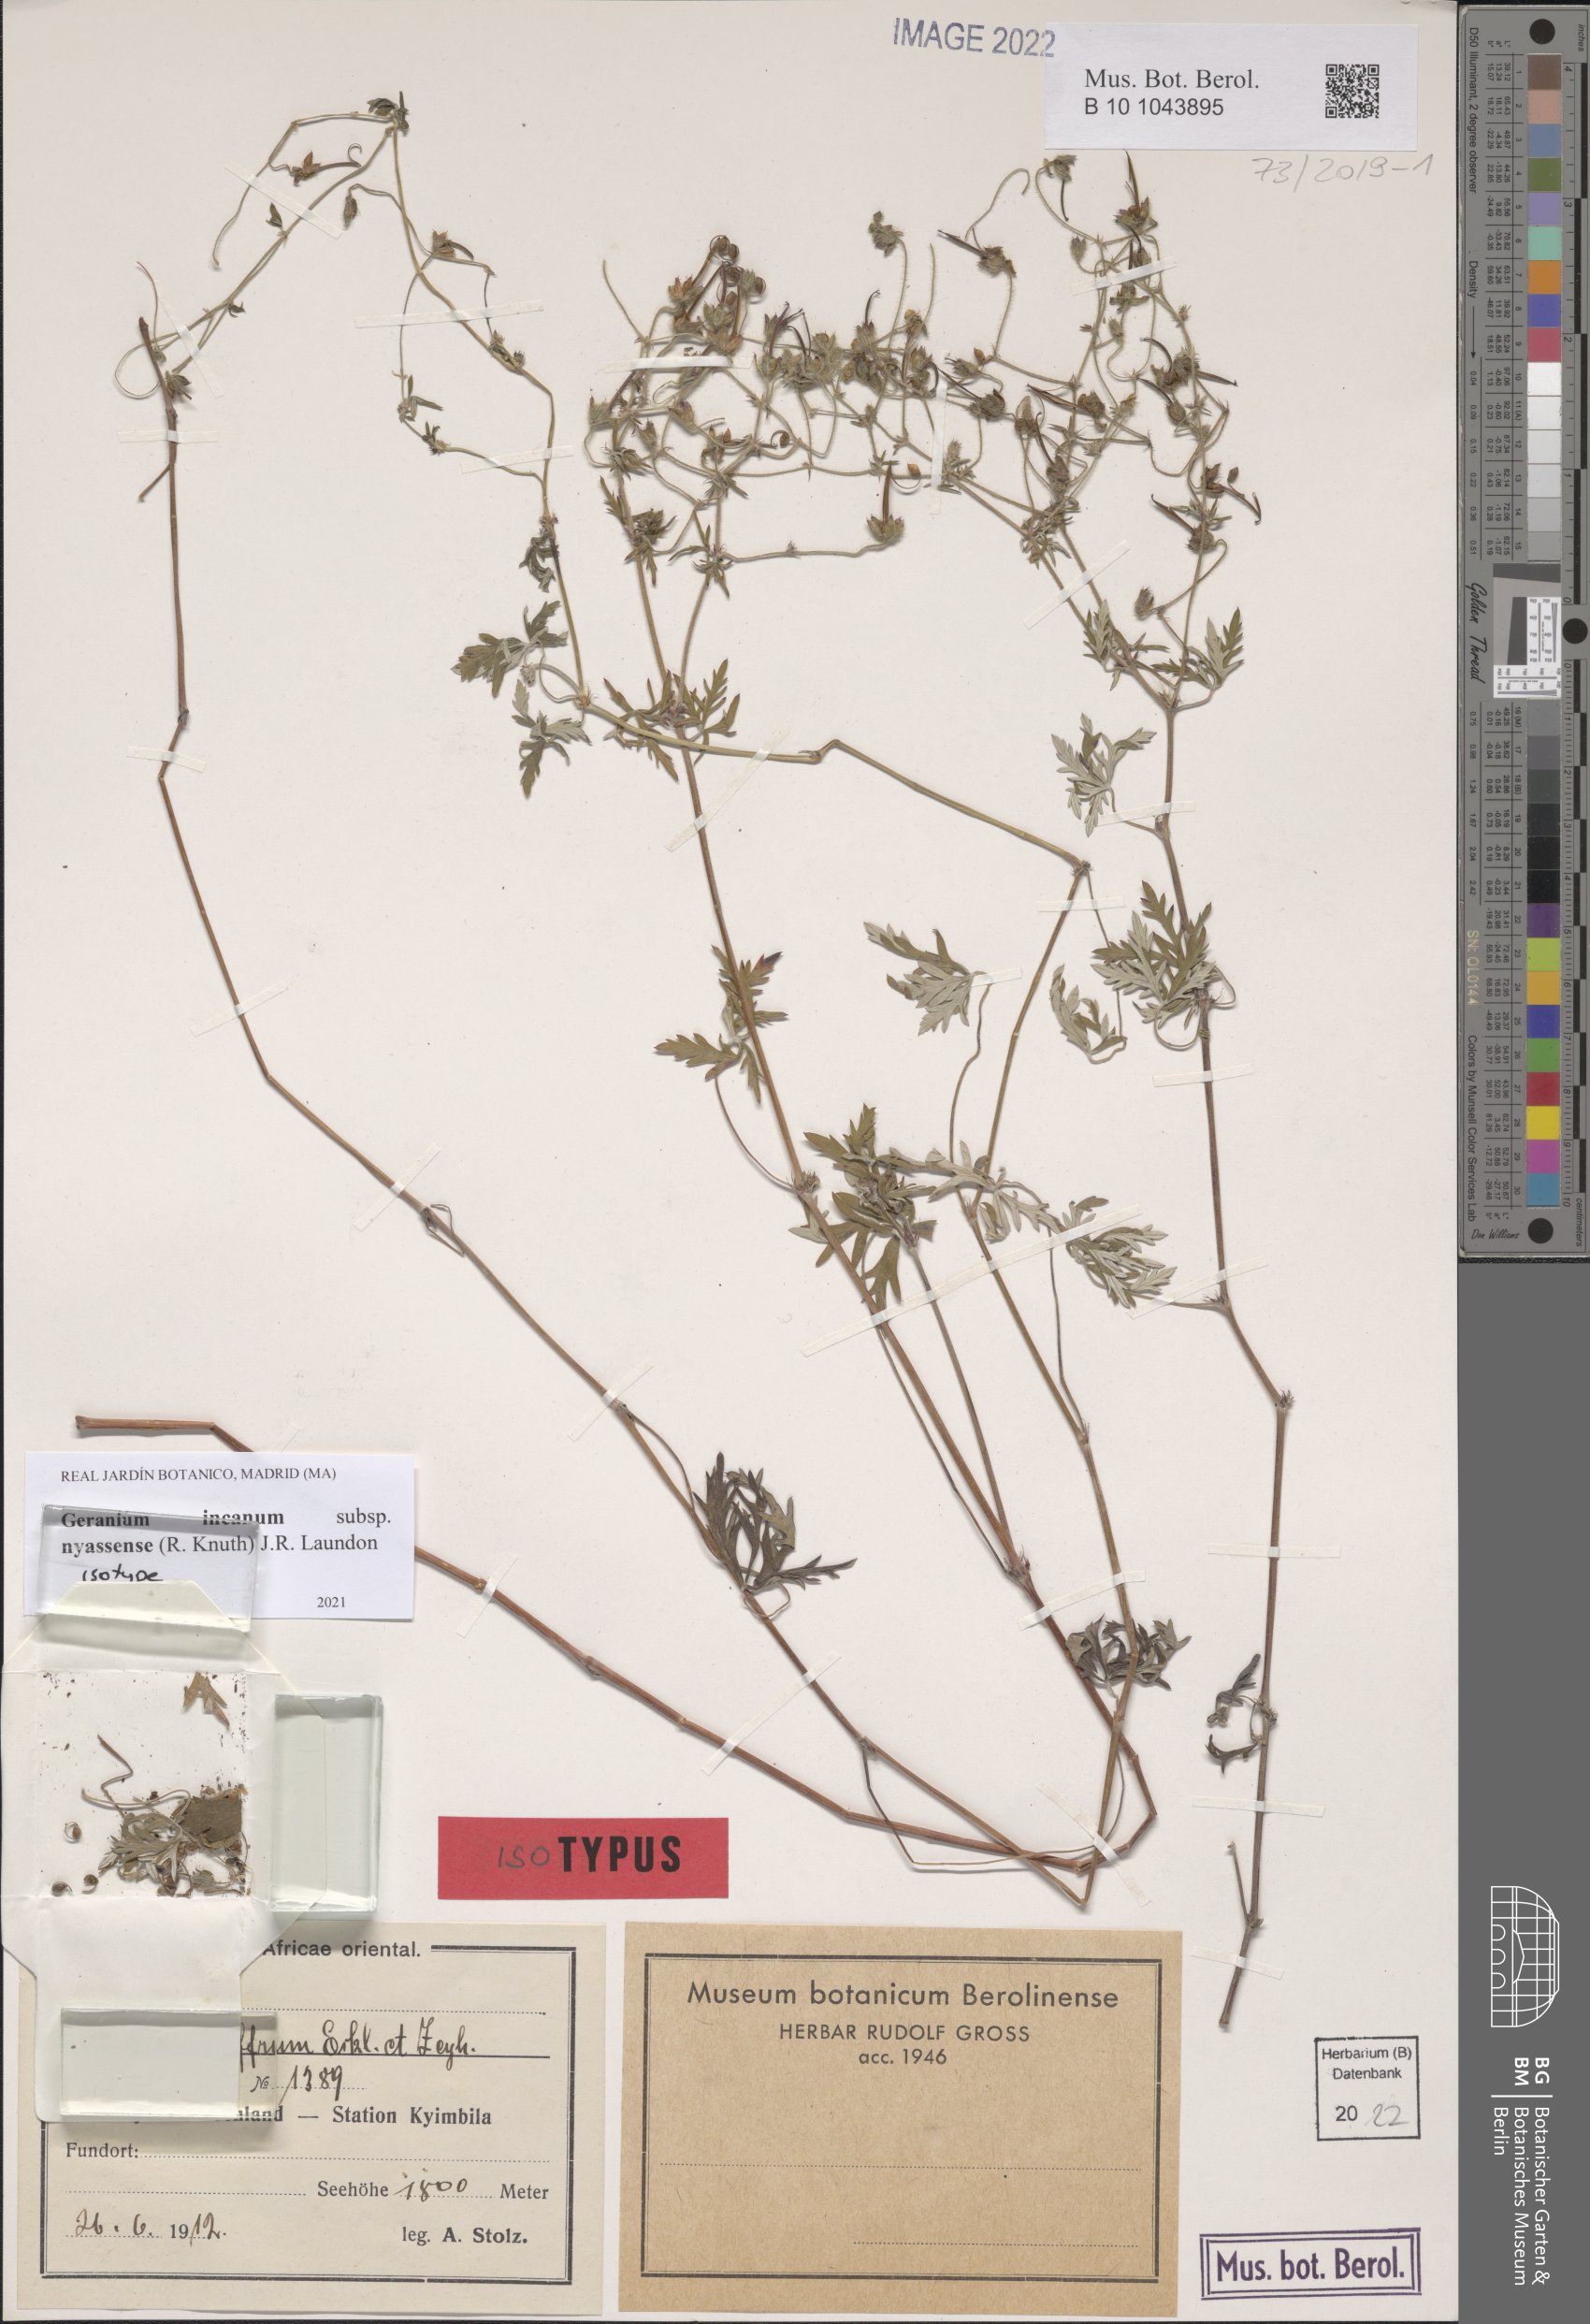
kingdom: Plantae
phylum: Tracheophyta
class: Magnoliopsida
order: Geraniales
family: Geraniaceae
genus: Geranium
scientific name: Geranium nyassense
